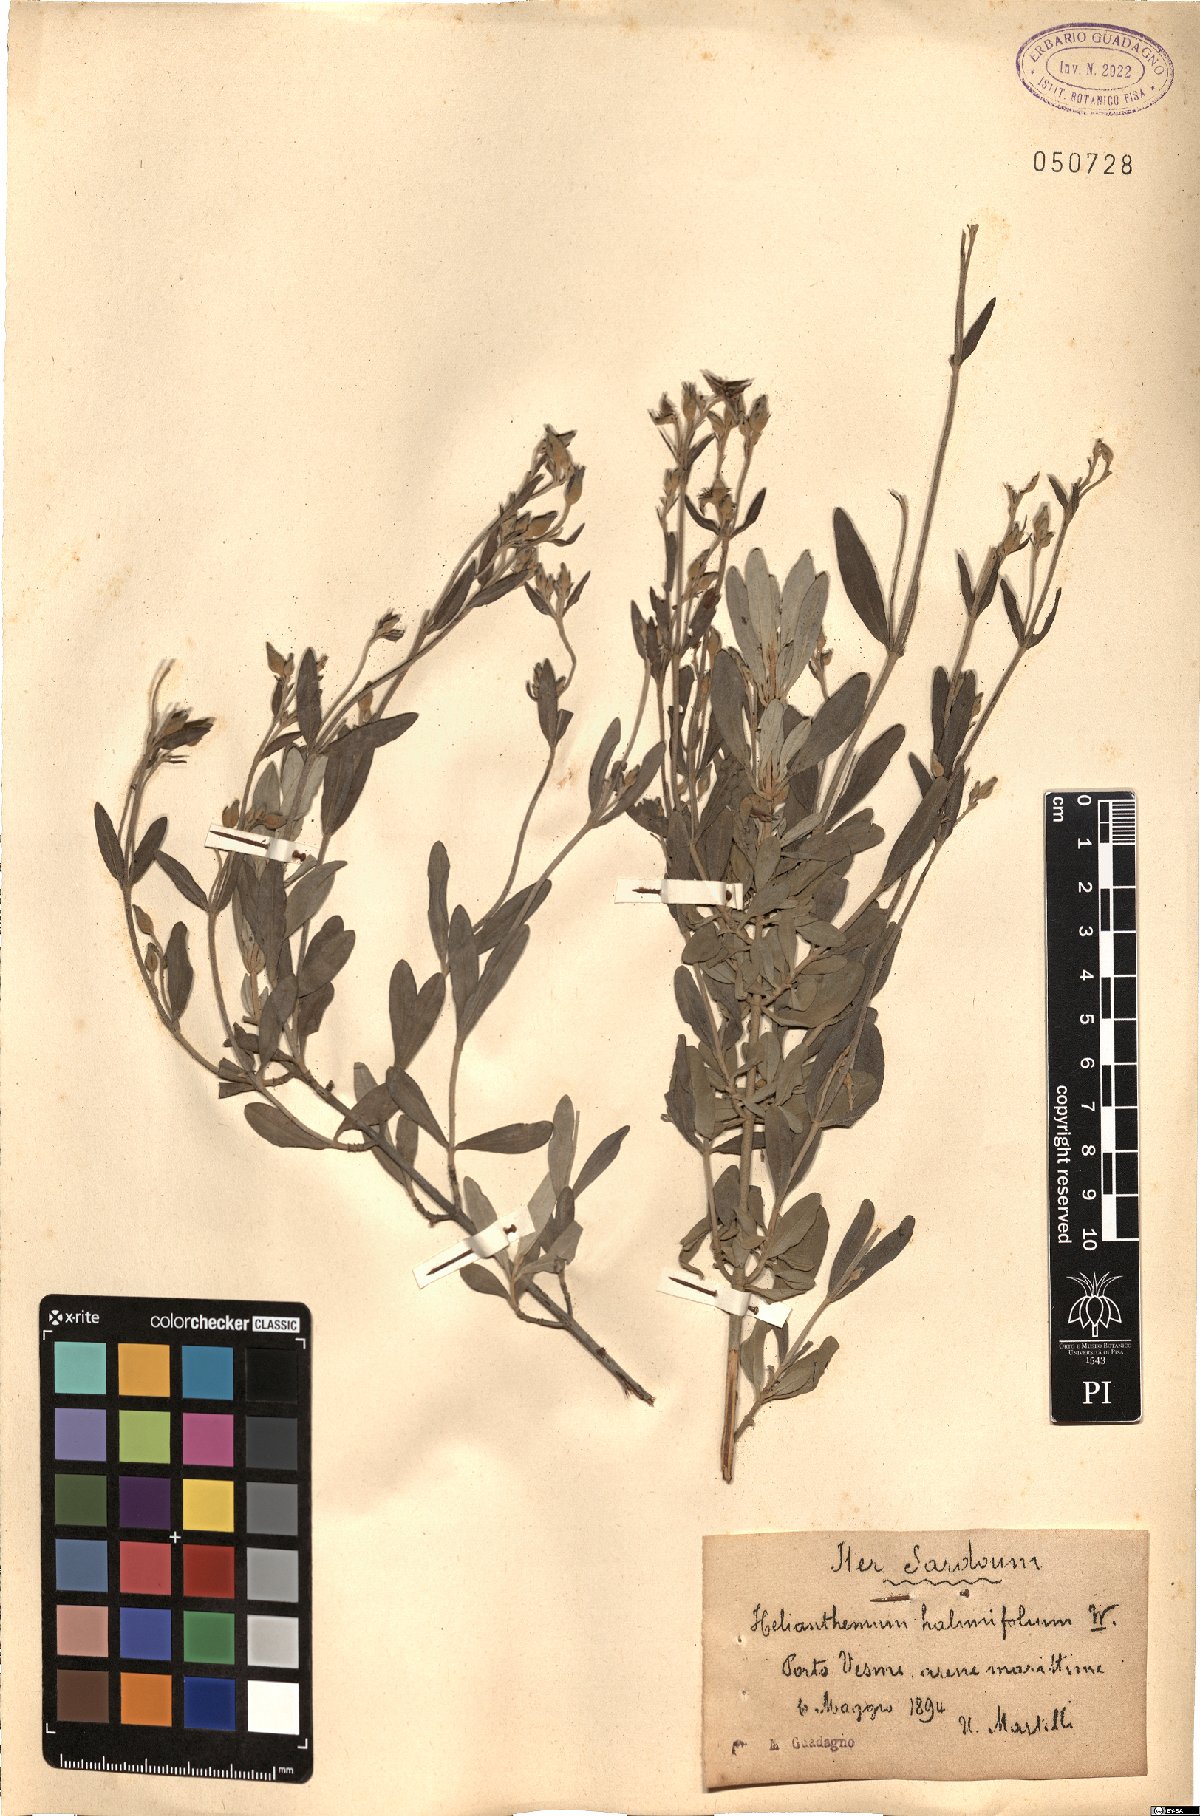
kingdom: Plantae
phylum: Tracheophyta
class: Magnoliopsida
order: Malvales
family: Cistaceae
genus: Halimium
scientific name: Halimium halimifolium
